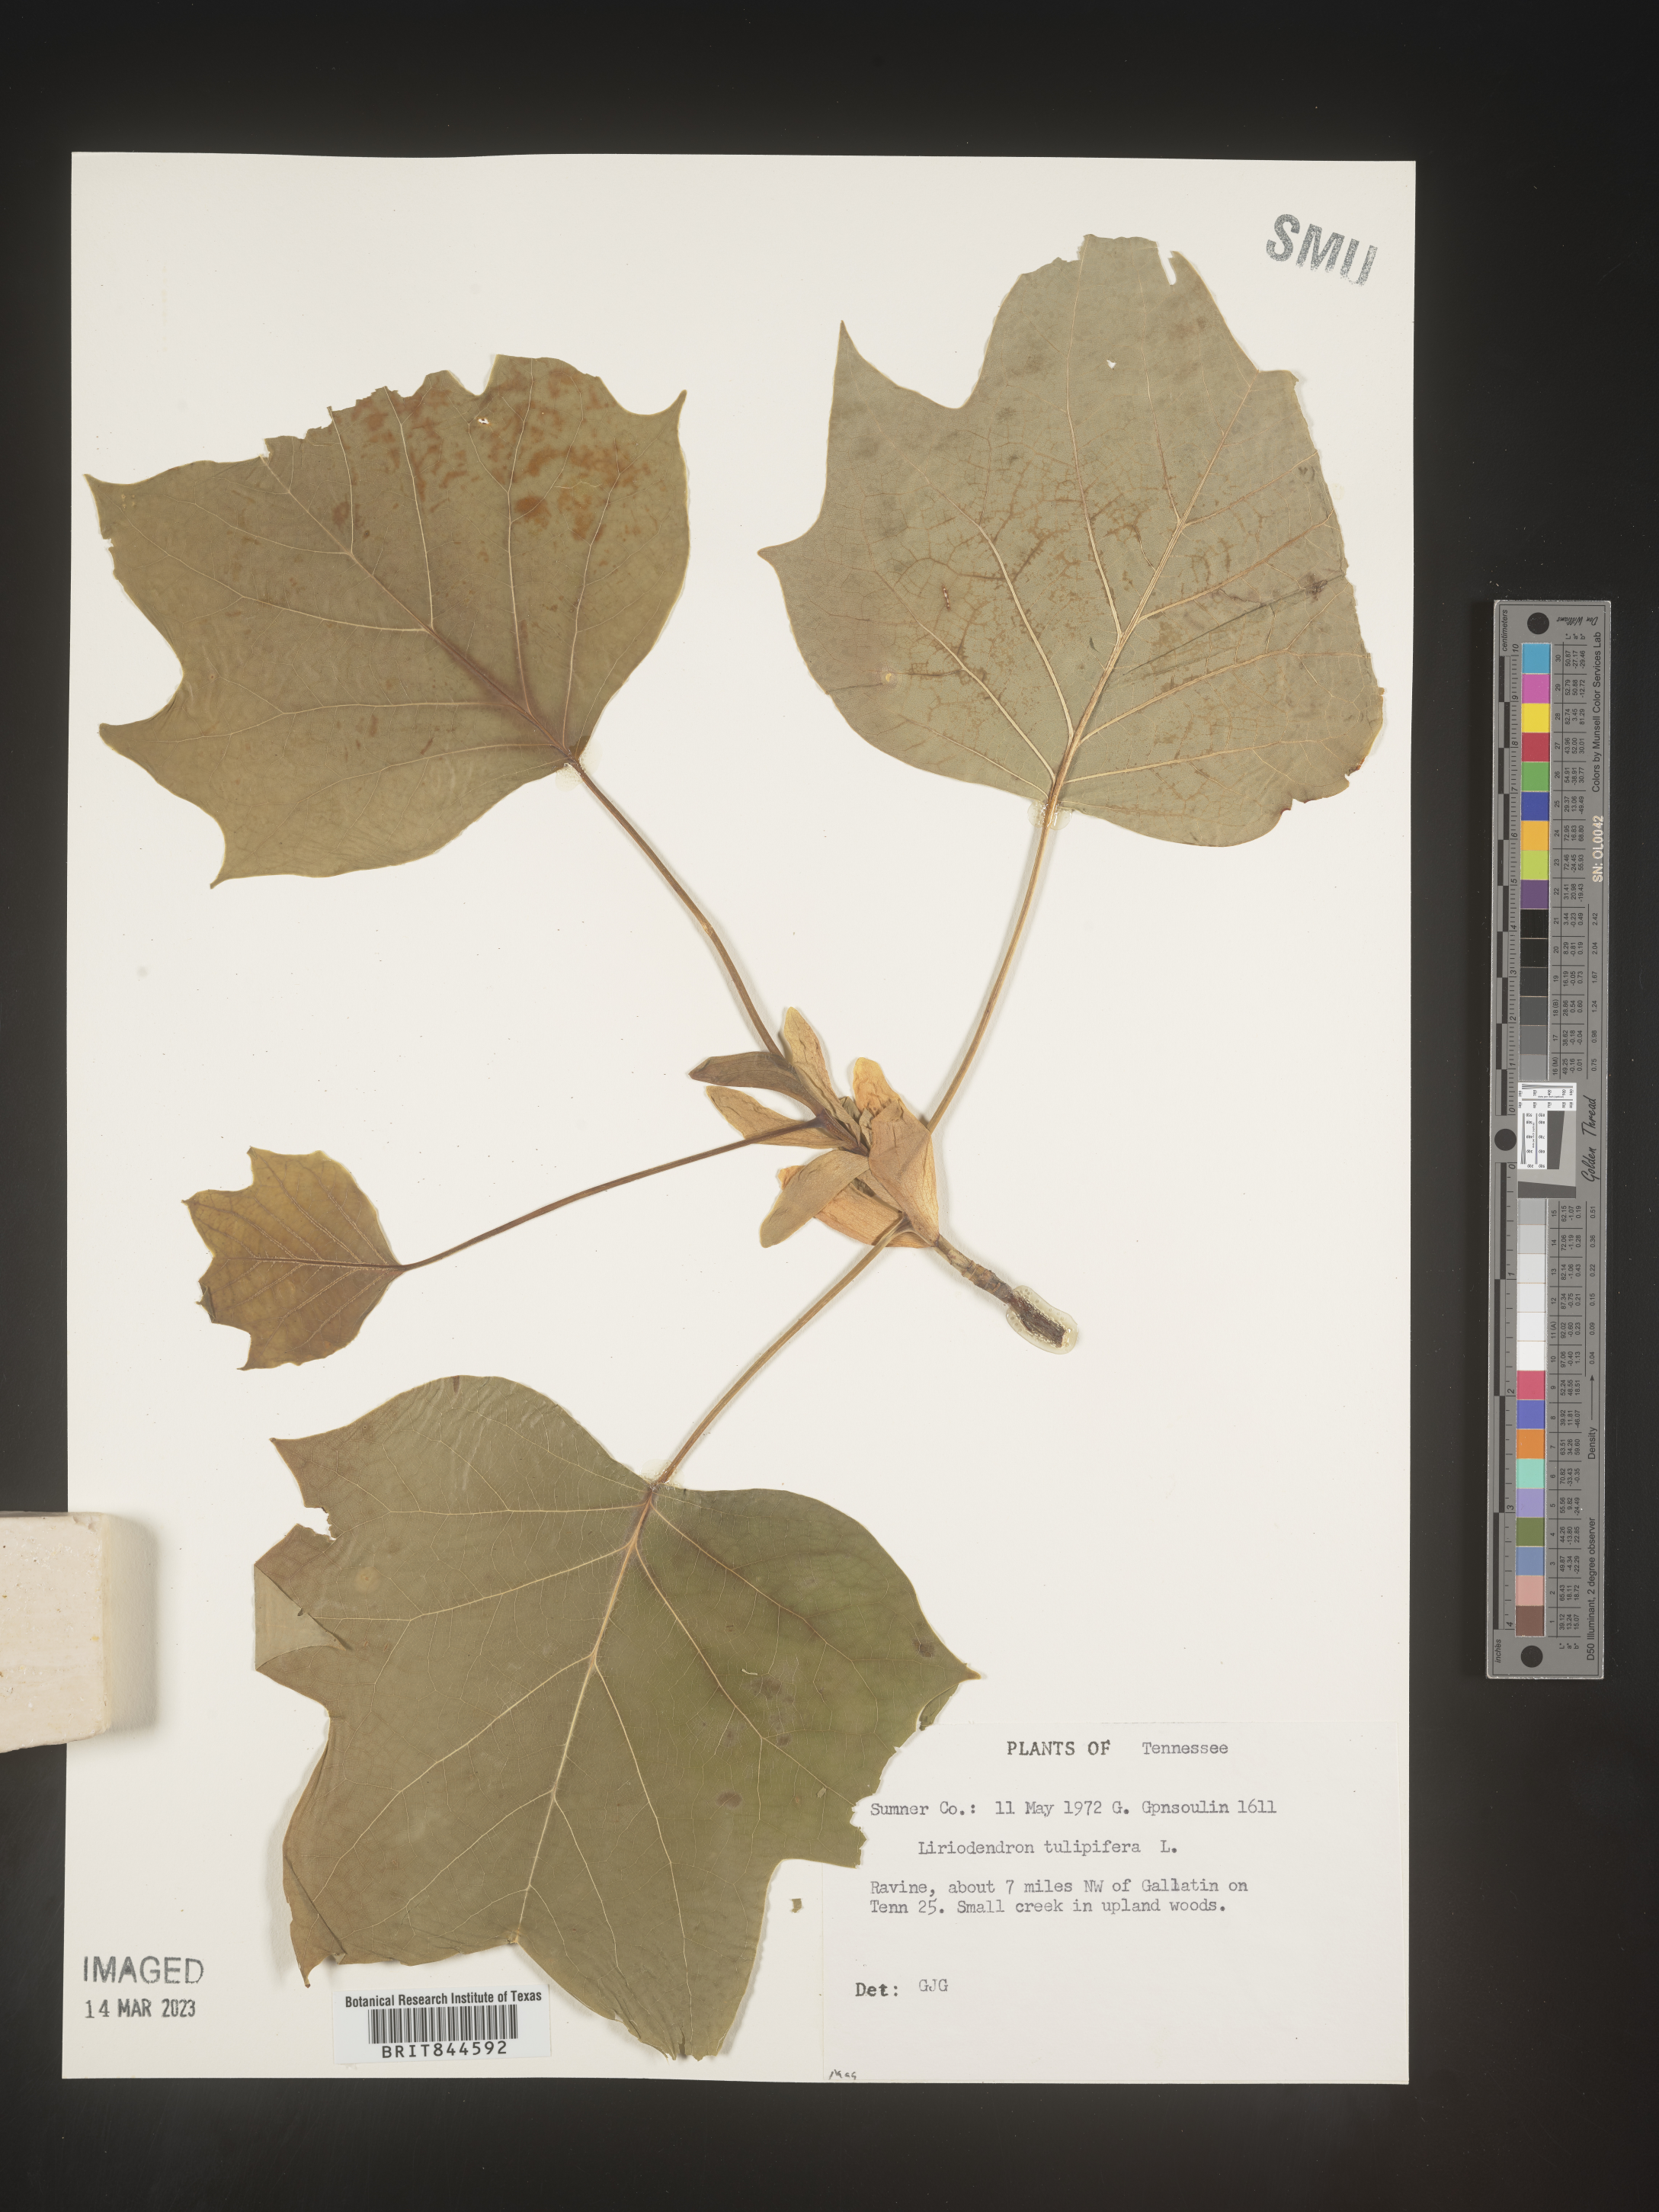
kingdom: Plantae
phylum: Tracheophyta
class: Magnoliopsida
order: Magnoliales
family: Magnoliaceae
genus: Liriodendron
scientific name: Liriodendron tulipifera
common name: Tulip tree
